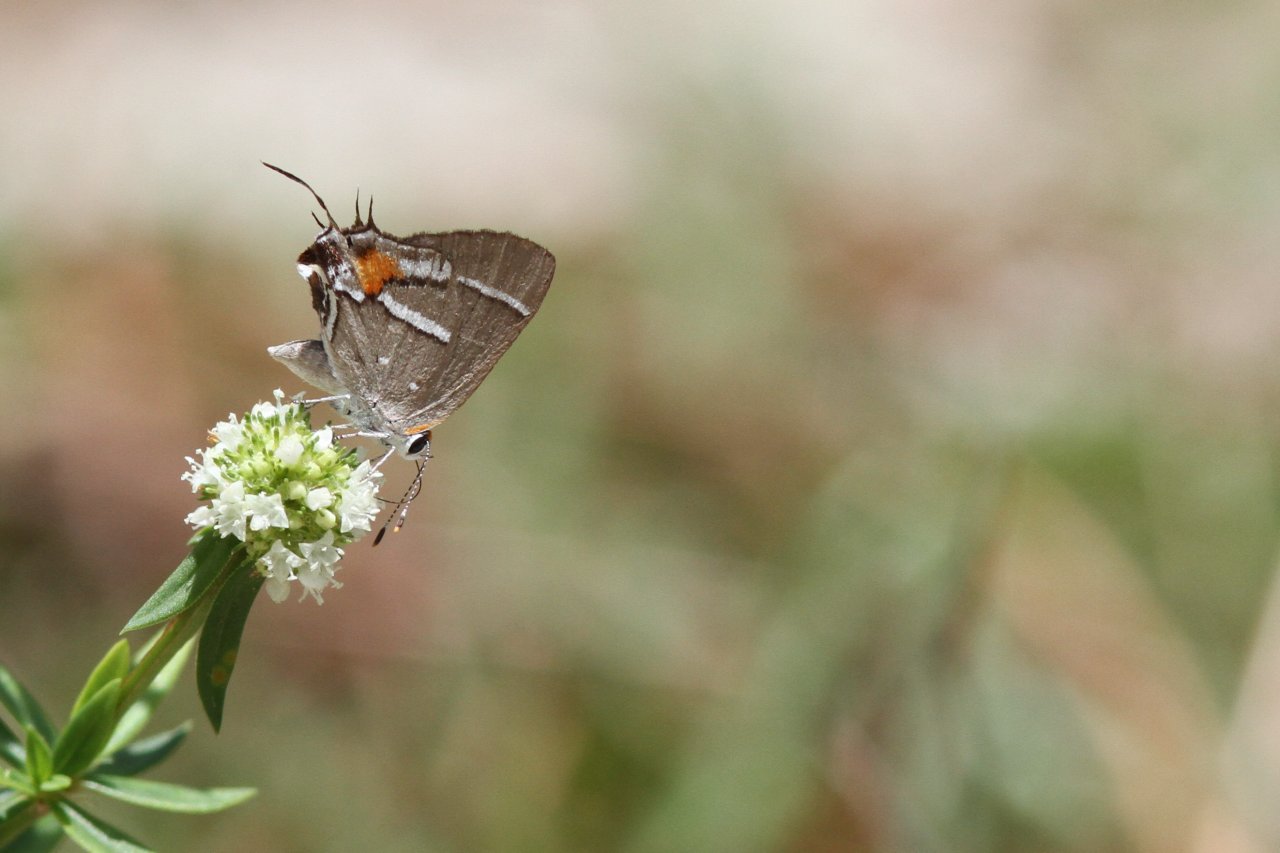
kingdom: Animalia
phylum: Arthropoda
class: Insecta
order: Lepidoptera
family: Lycaenidae
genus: Strymon
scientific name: Strymon acis
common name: Caribbean Scrub-Hairstreak
